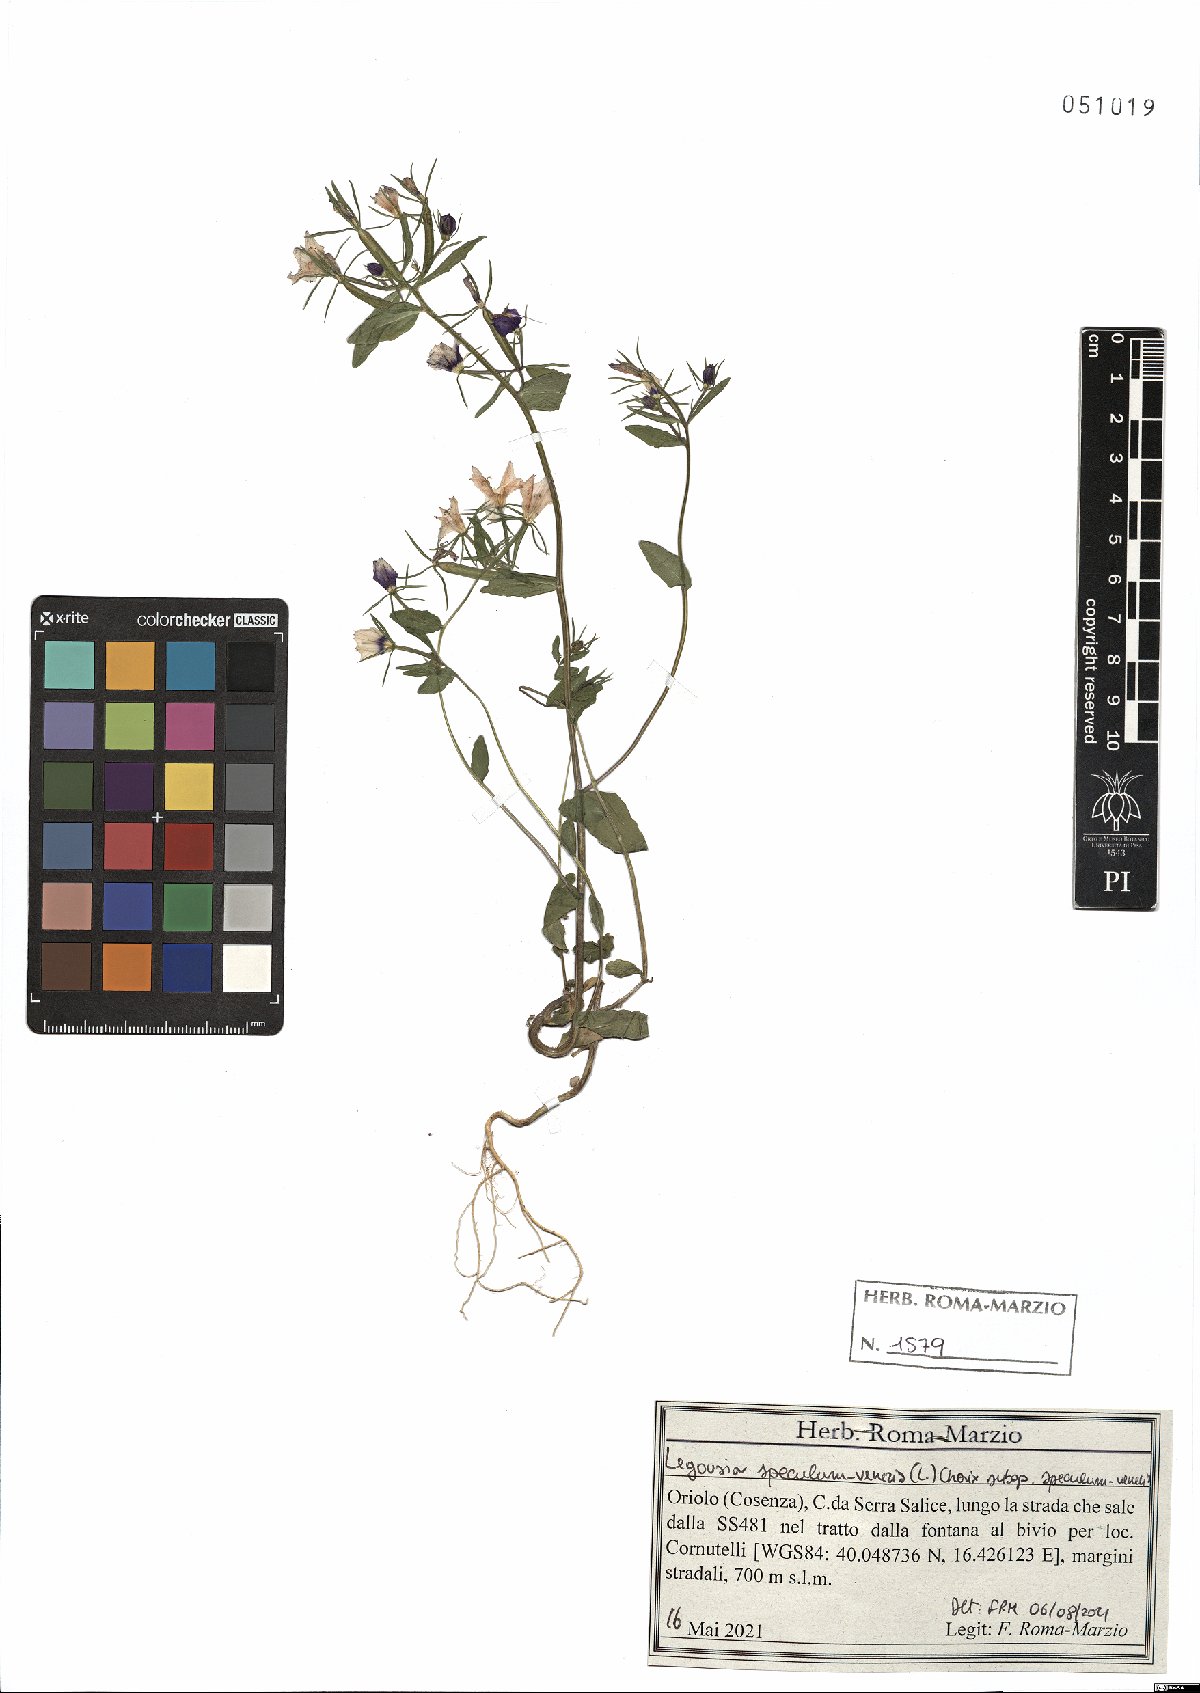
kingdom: Plantae
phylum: Tracheophyta
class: Magnoliopsida
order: Asterales
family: Campanulaceae
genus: Legousia
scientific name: Legousia speculum-veneris
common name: Large venus's-looking-glass
